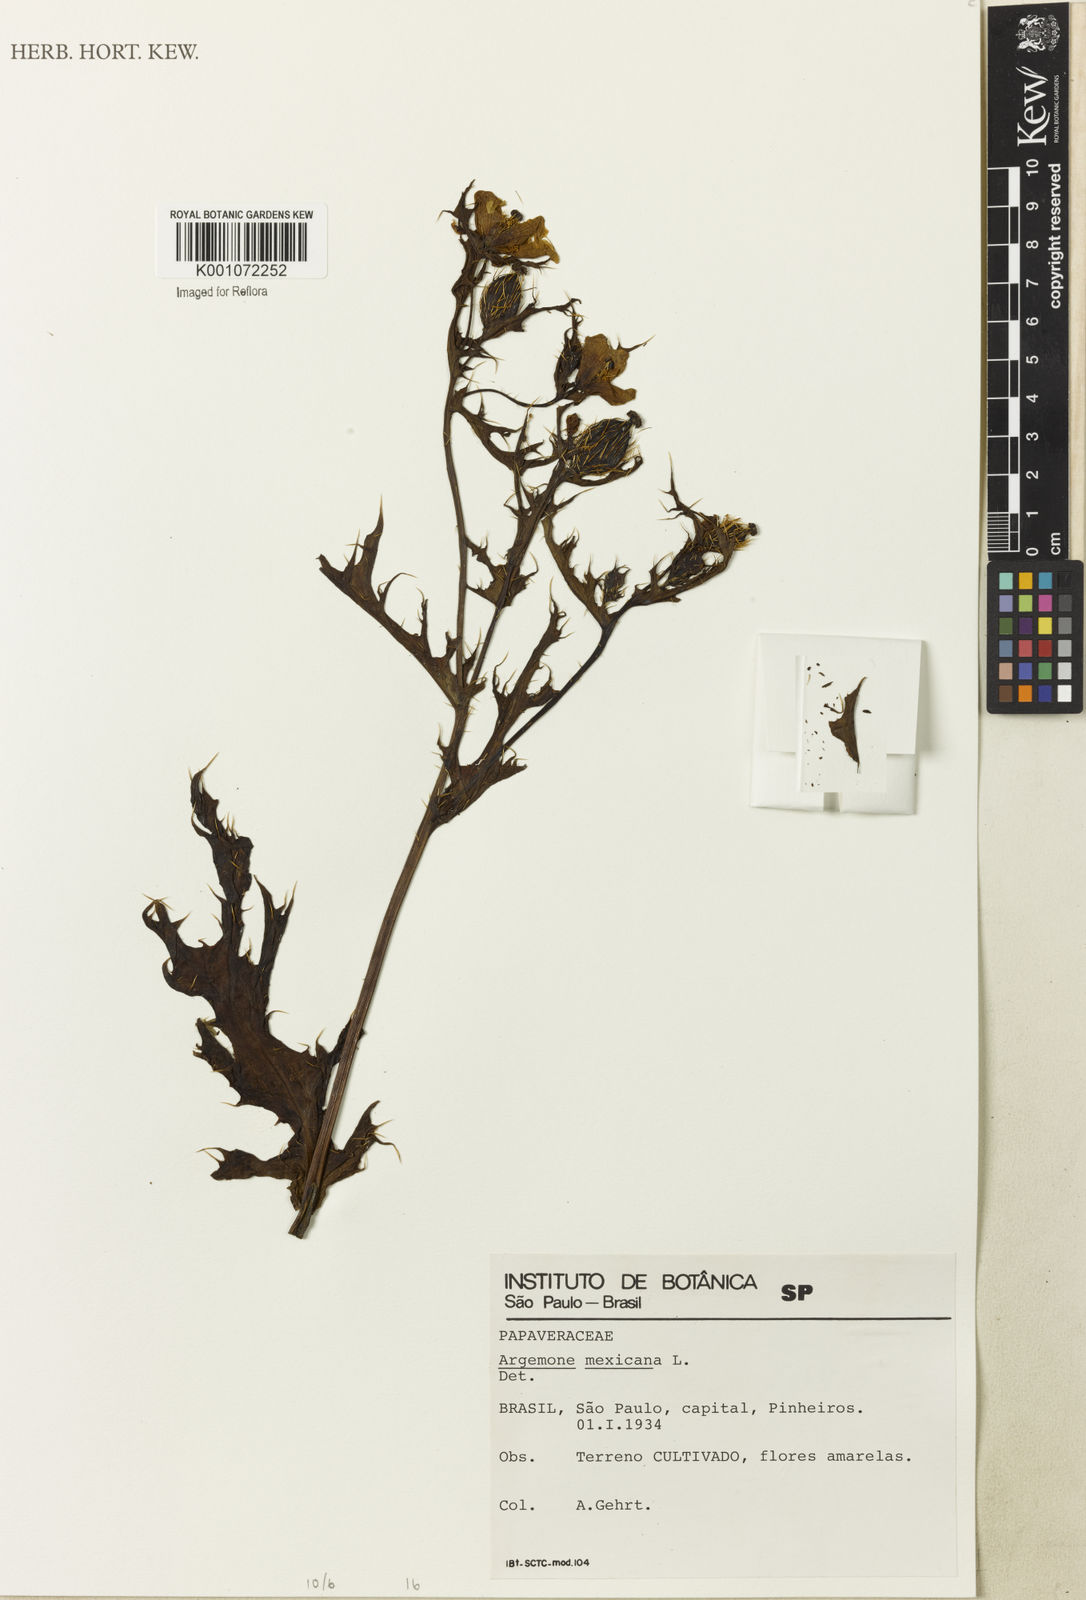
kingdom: Plantae
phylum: Tracheophyta
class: Magnoliopsida
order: Ranunculales
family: Papaveraceae
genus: Argemone
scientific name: Argemone mexicana
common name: Mexican poppy
